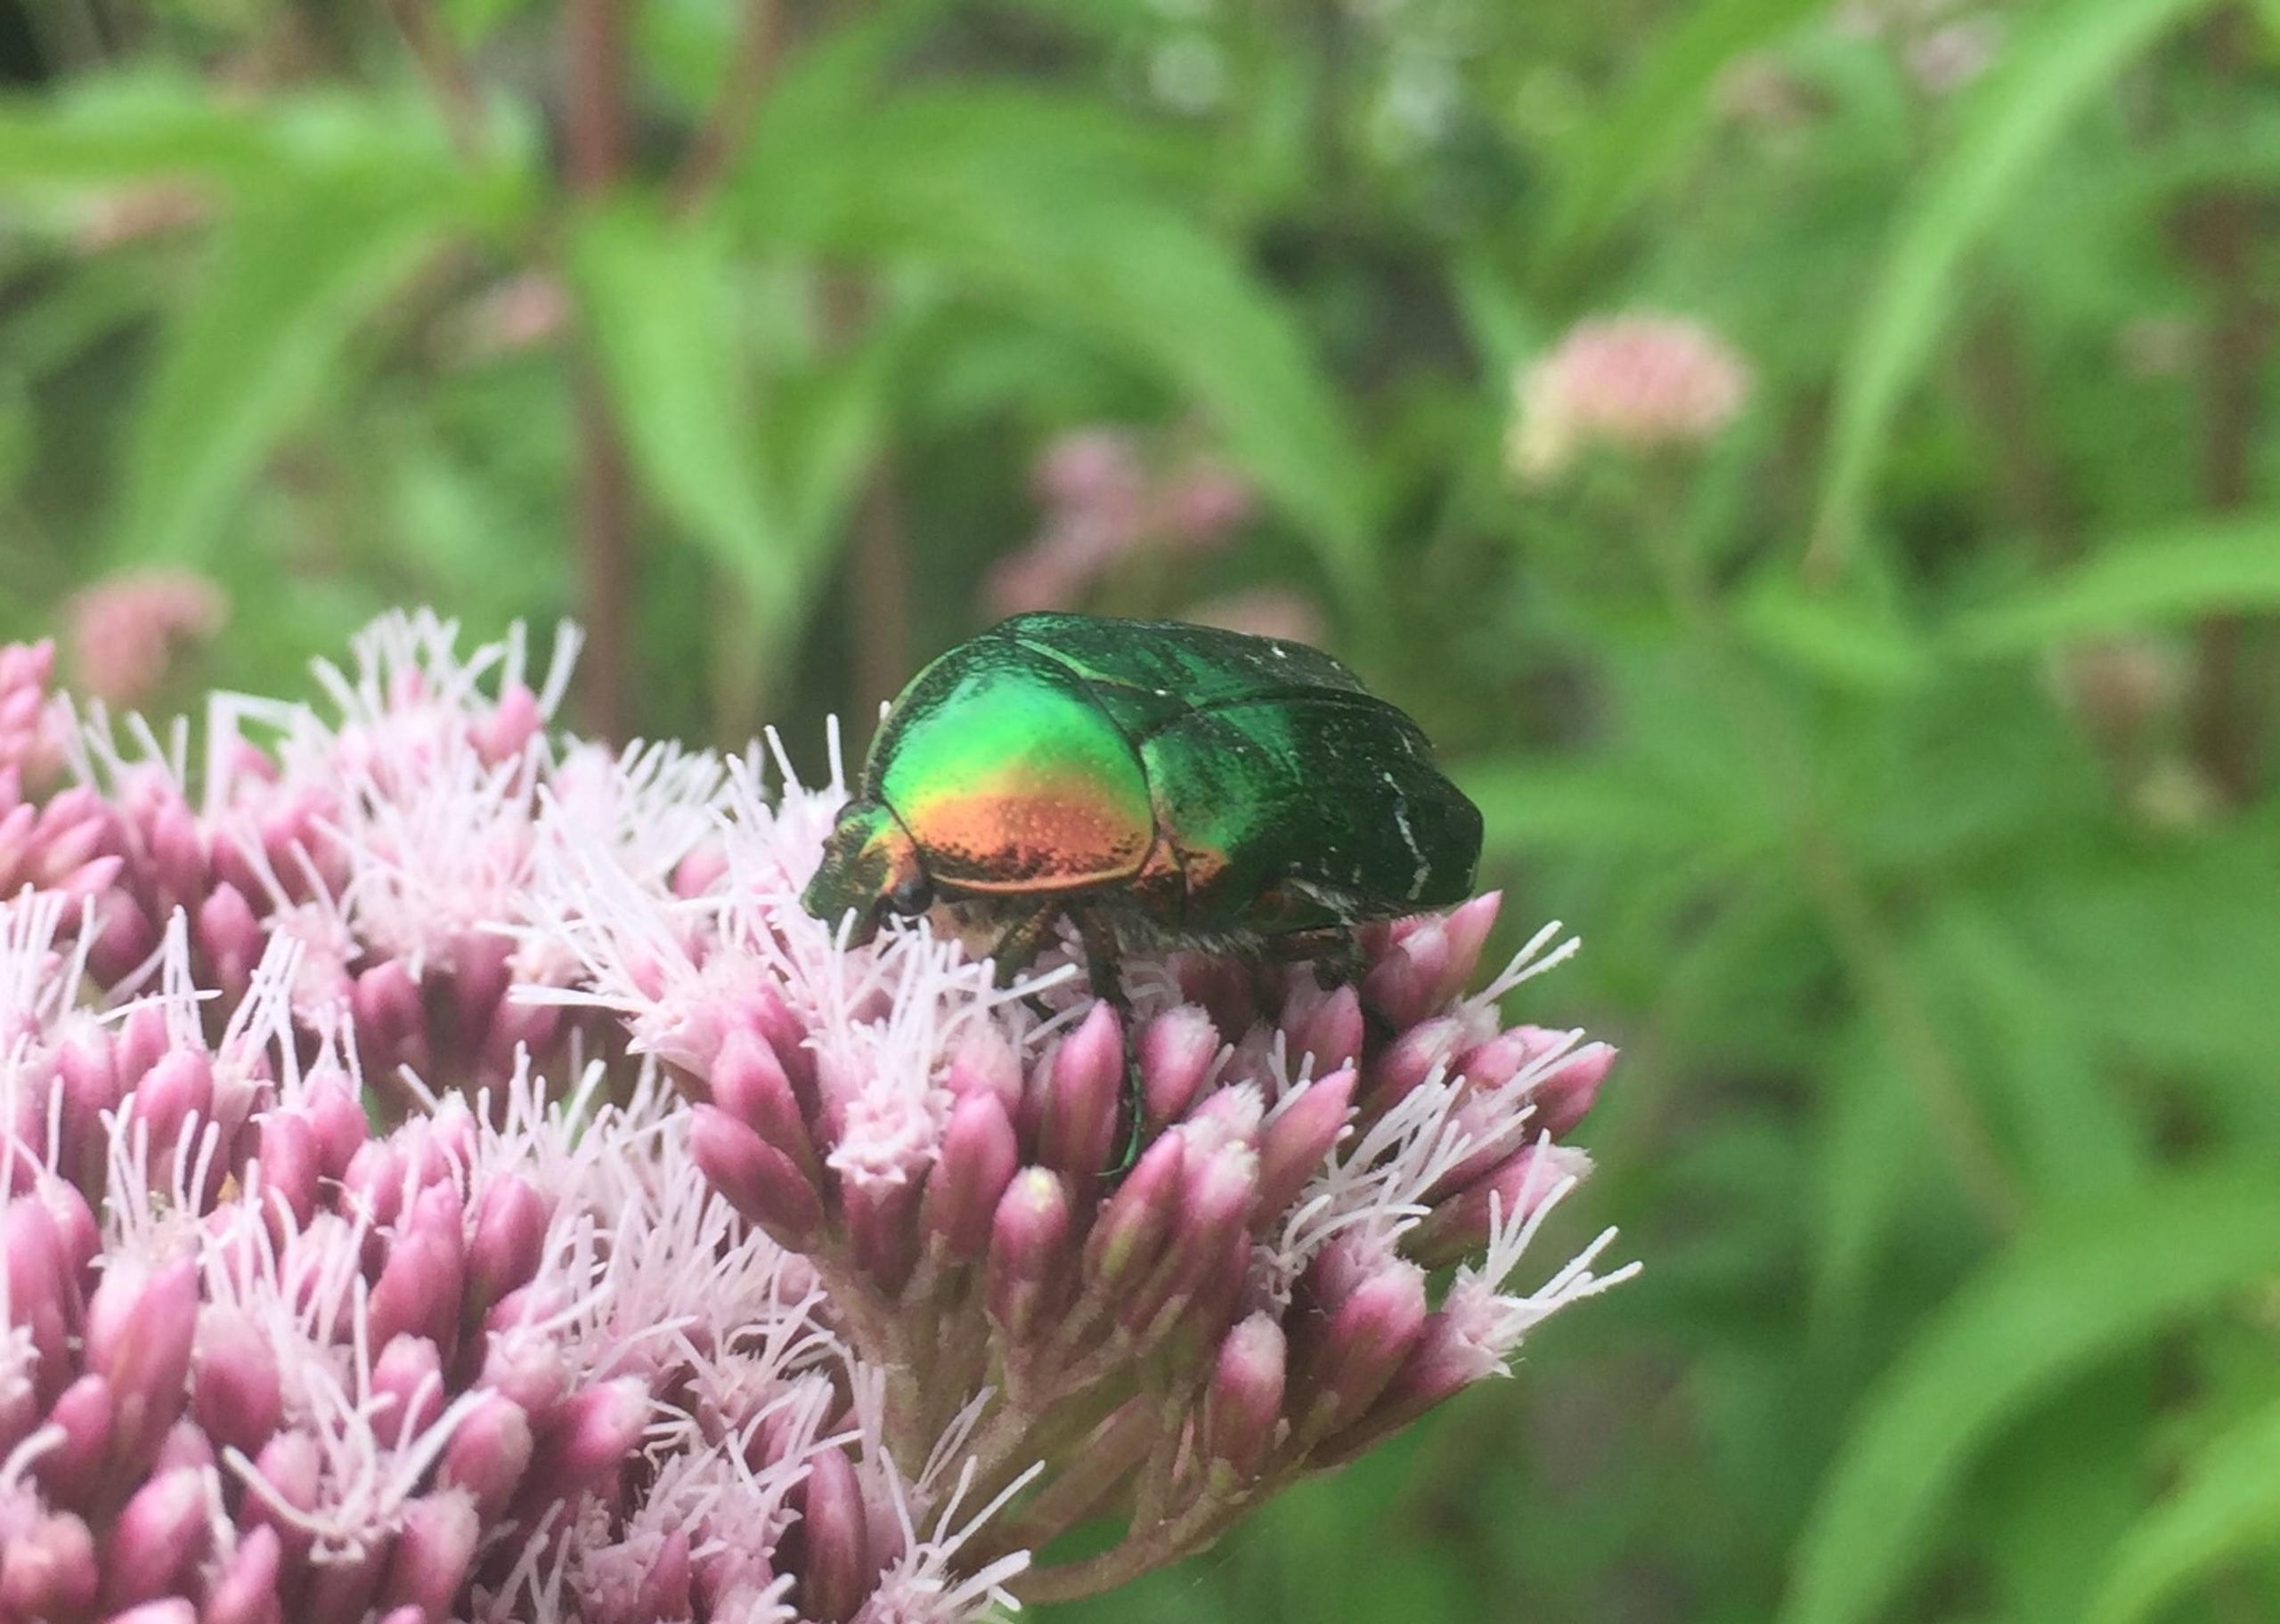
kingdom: Animalia
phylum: Arthropoda
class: Insecta
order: Coleoptera
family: Scarabaeidae
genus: Cetonia
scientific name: Cetonia aurata
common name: Grøn guldbasse
